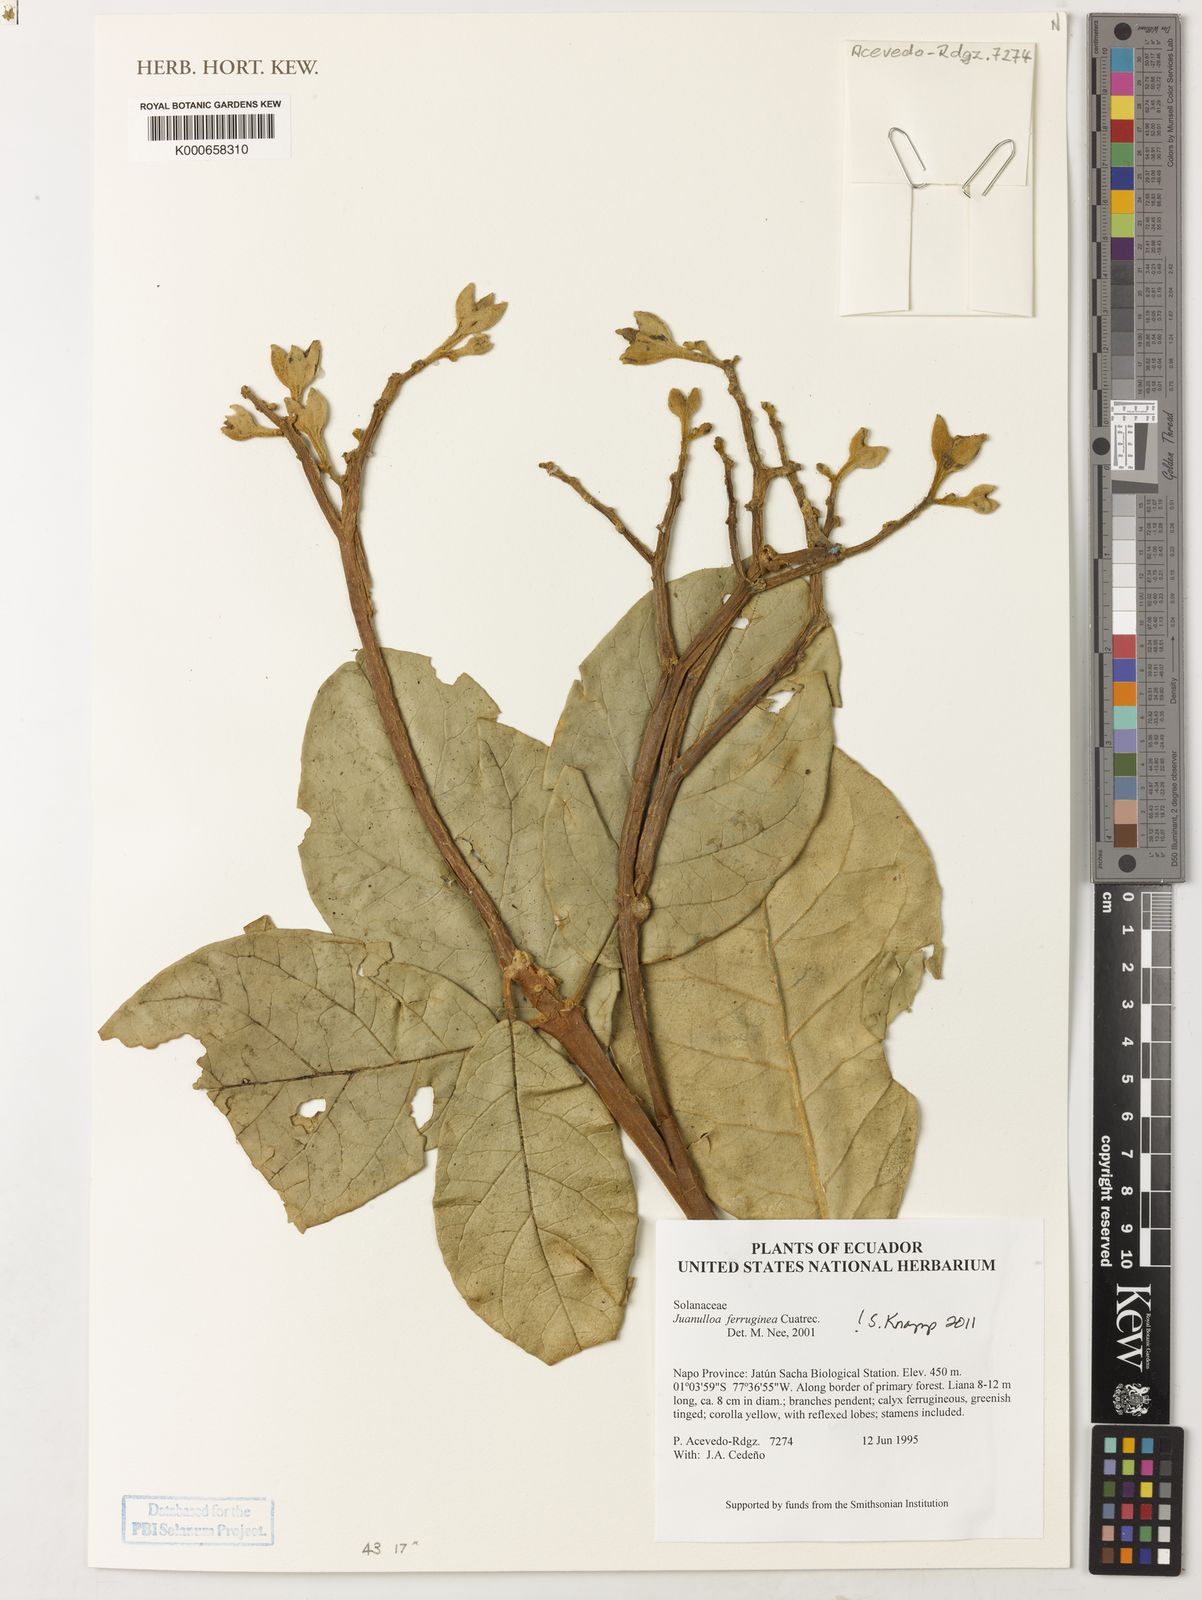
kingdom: Plantae
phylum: Tracheophyta
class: Magnoliopsida
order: Solanales
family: Solanaceae
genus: Juanulloa
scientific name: Juanulloa ferruginea
